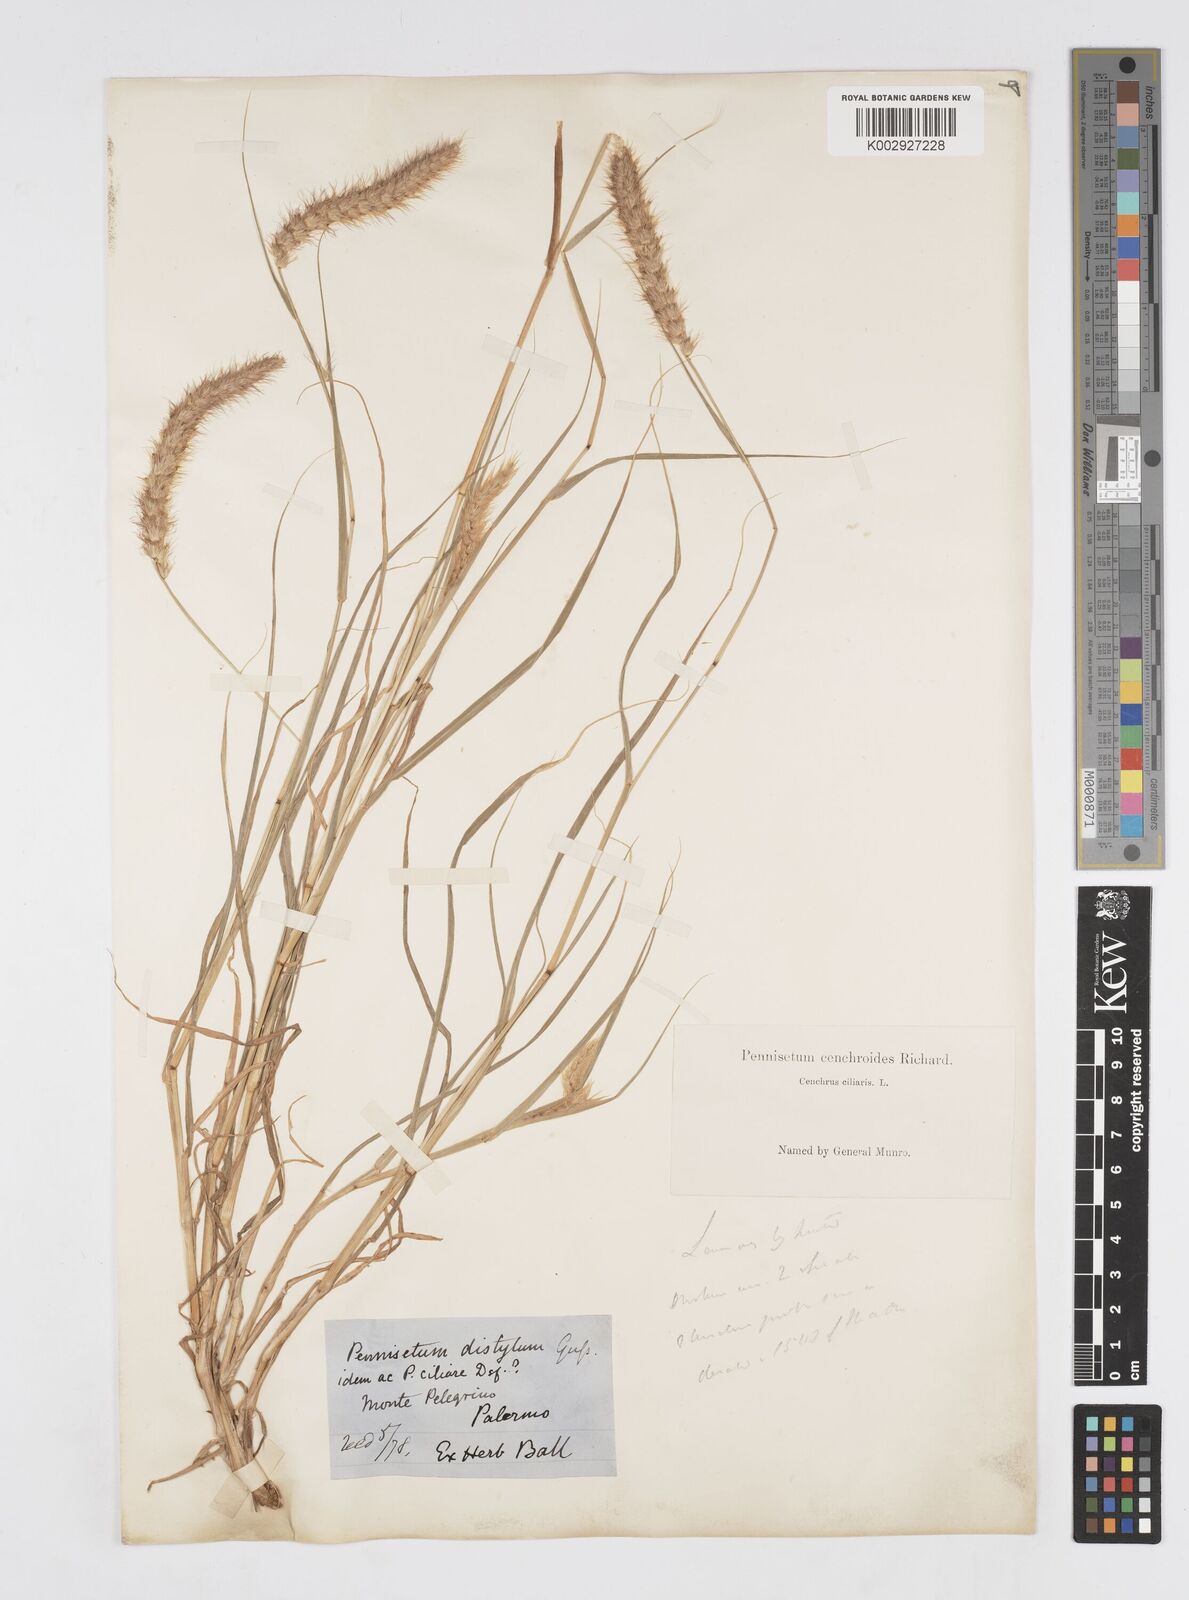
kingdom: Plantae
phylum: Tracheophyta
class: Liliopsida
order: Poales
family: Poaceae
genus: Cenchrus
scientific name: Cenchrus ciliaris
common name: Buffelgrass
